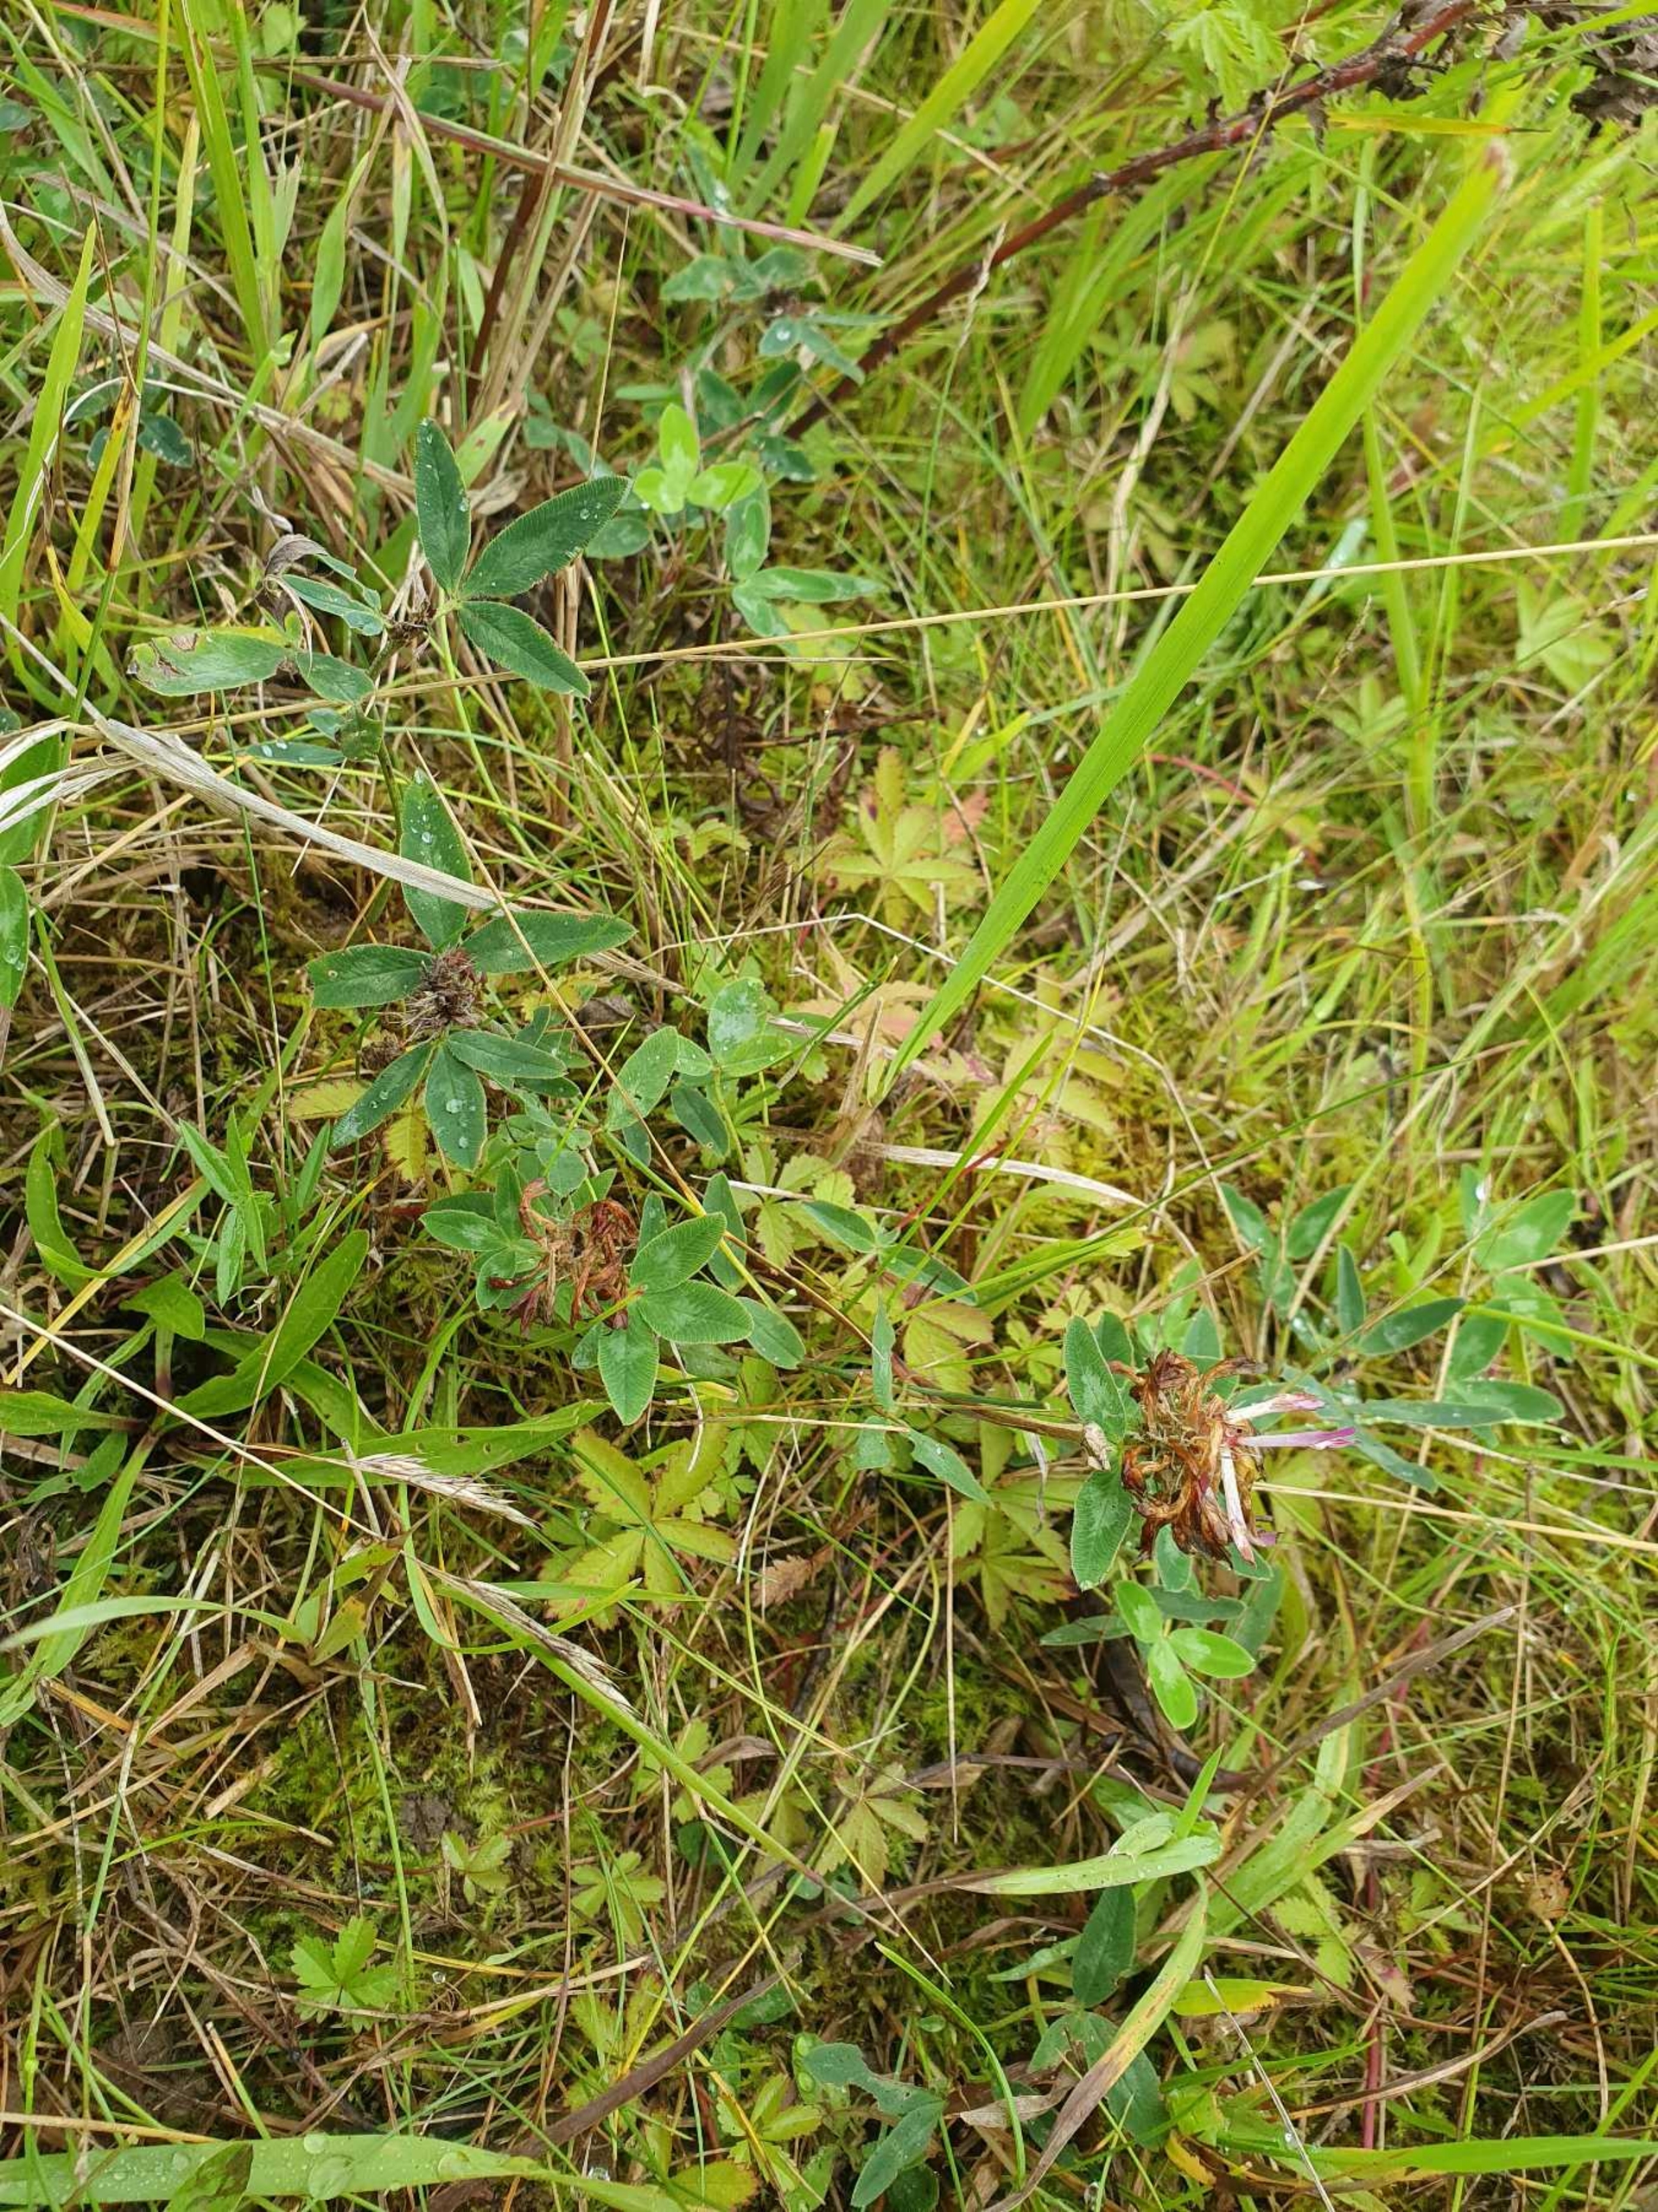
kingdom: Plantae
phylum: Tracheophyta
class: Magnoliopsida
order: Fabales
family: Fabaceae
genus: Trifolium
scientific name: Trifolium medium
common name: Bugtet kløver
